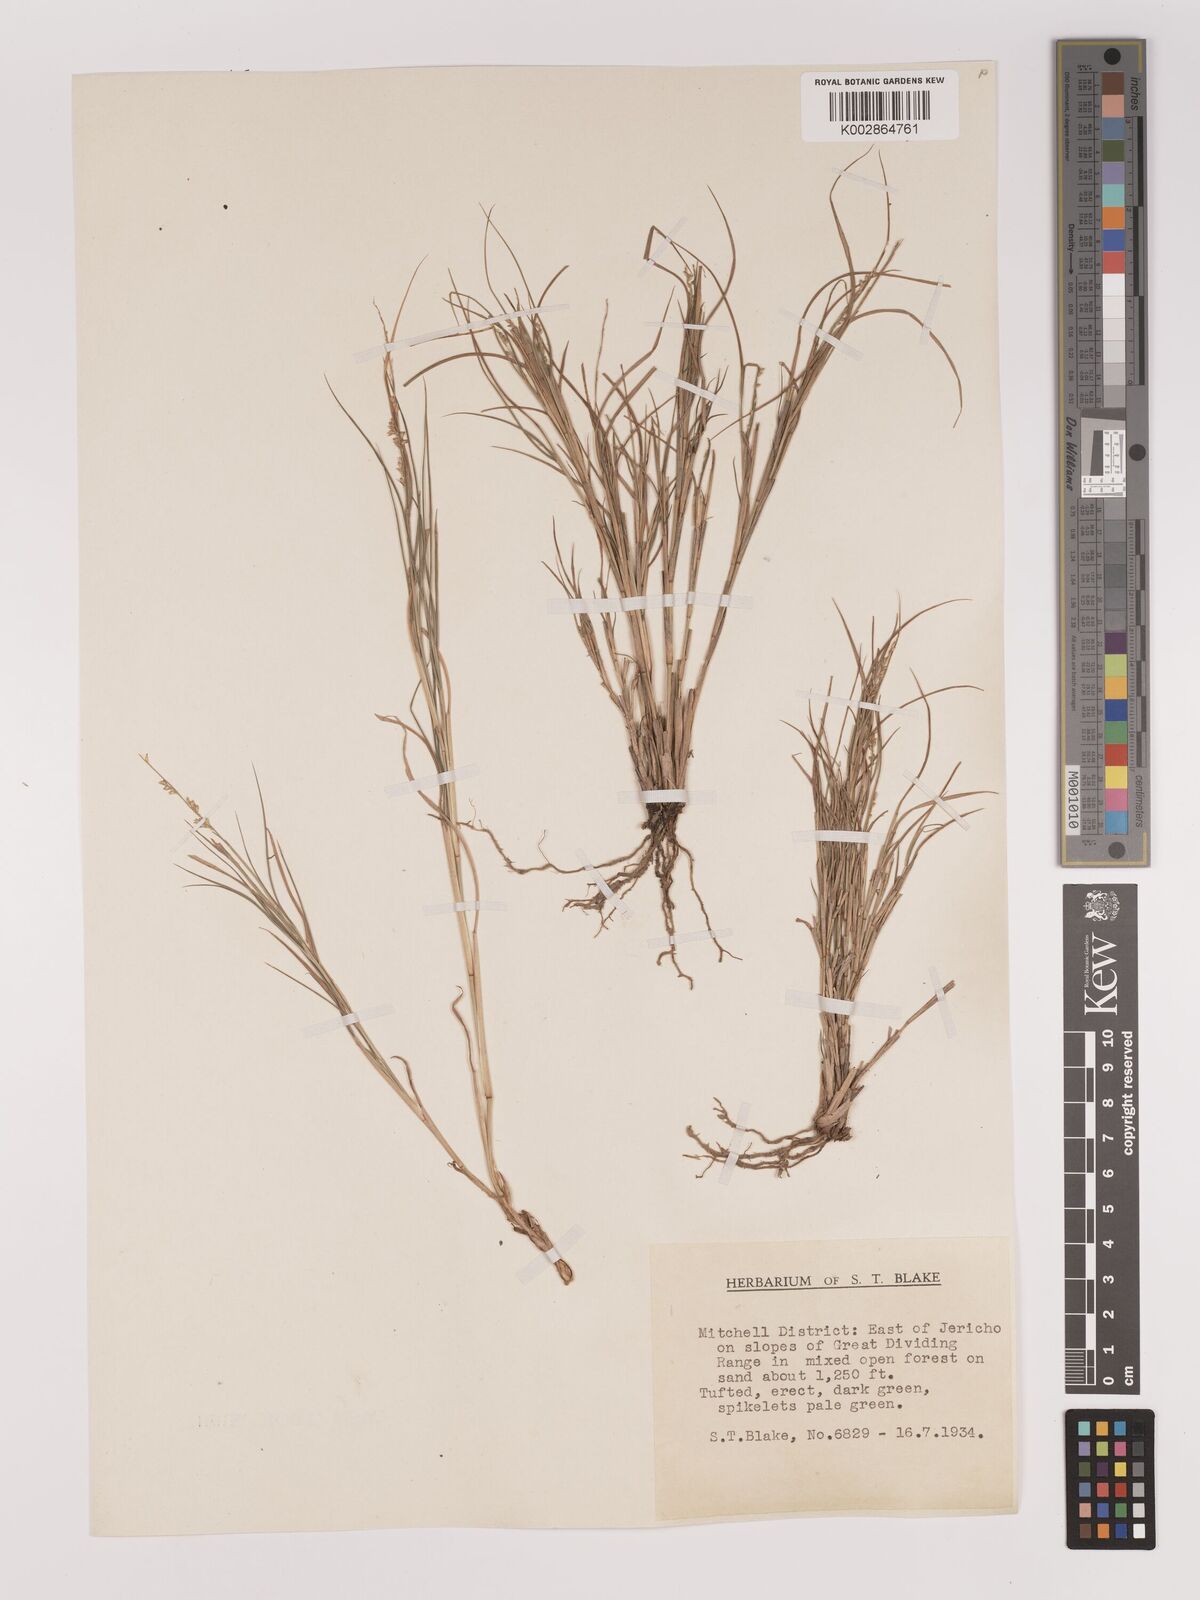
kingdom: Plantae
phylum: Tracheophyta
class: Liliopsida
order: Poales
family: Poaceae
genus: Setaria
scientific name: Setaria constricta
